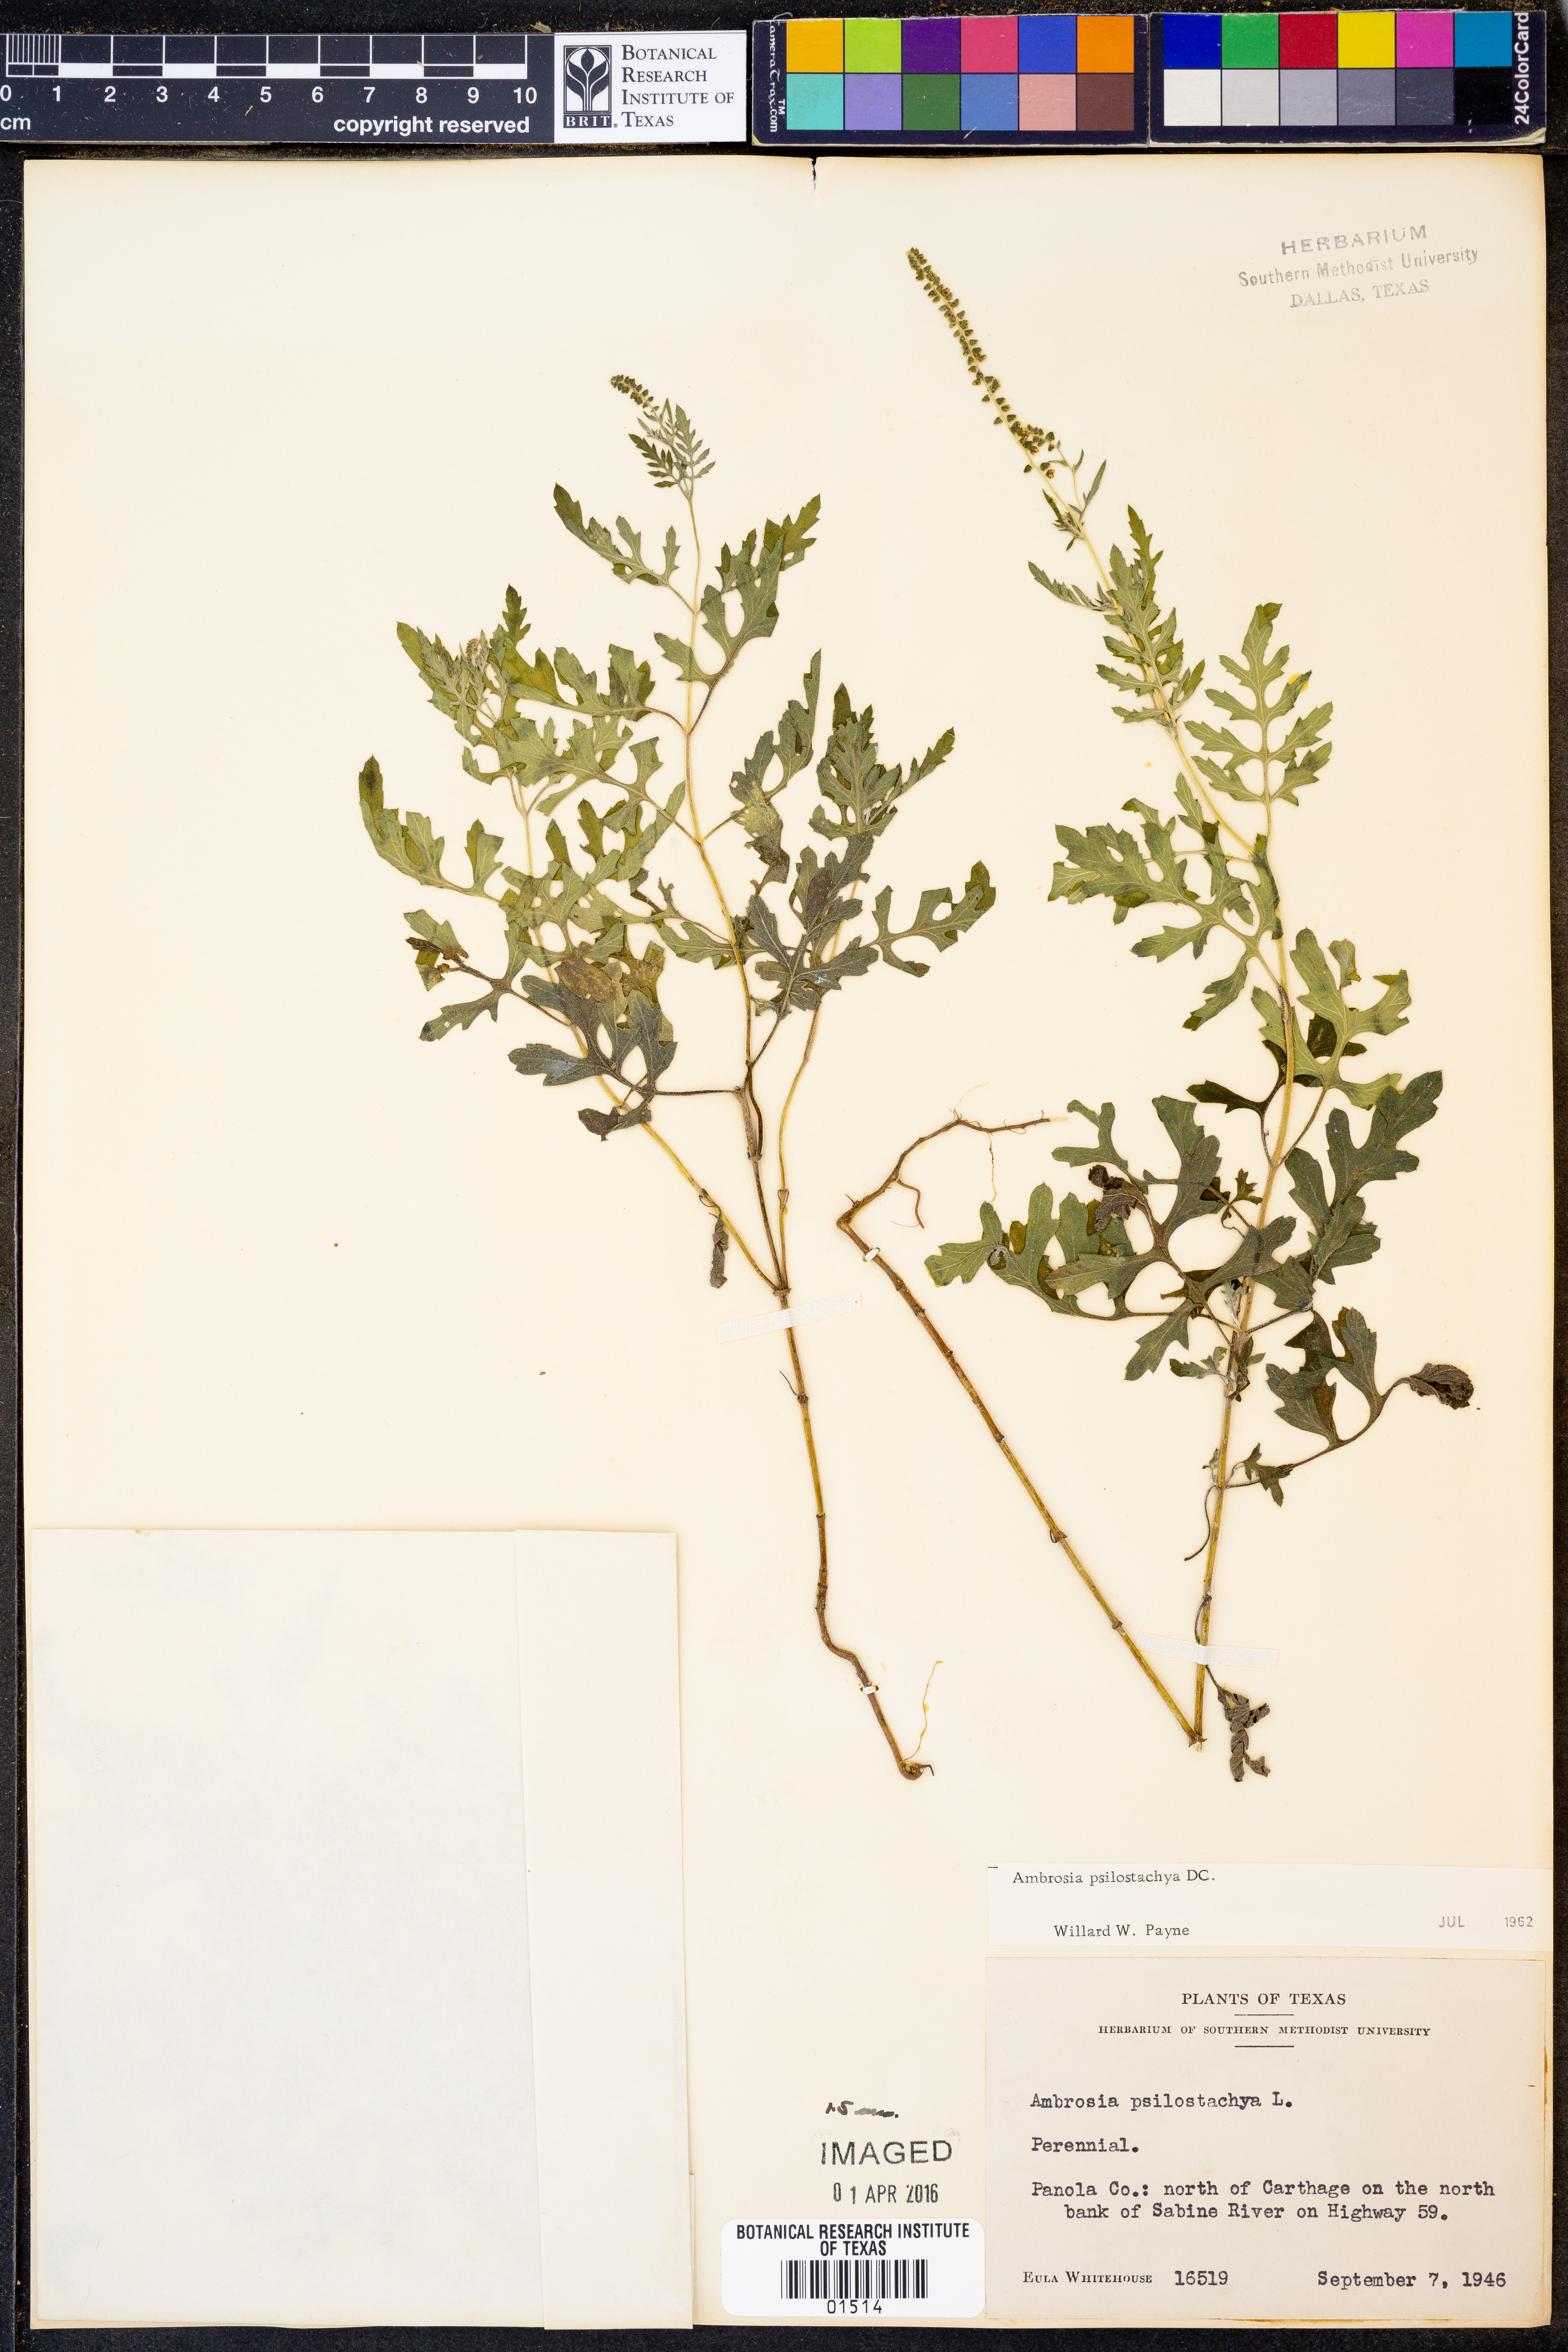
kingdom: Plantae
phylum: Tracheophyta
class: Magnoliopsida
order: Asterales
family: Asteraceae
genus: Ambrosia
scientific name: Ambrosia psilostachya
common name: Perennial ragweed
